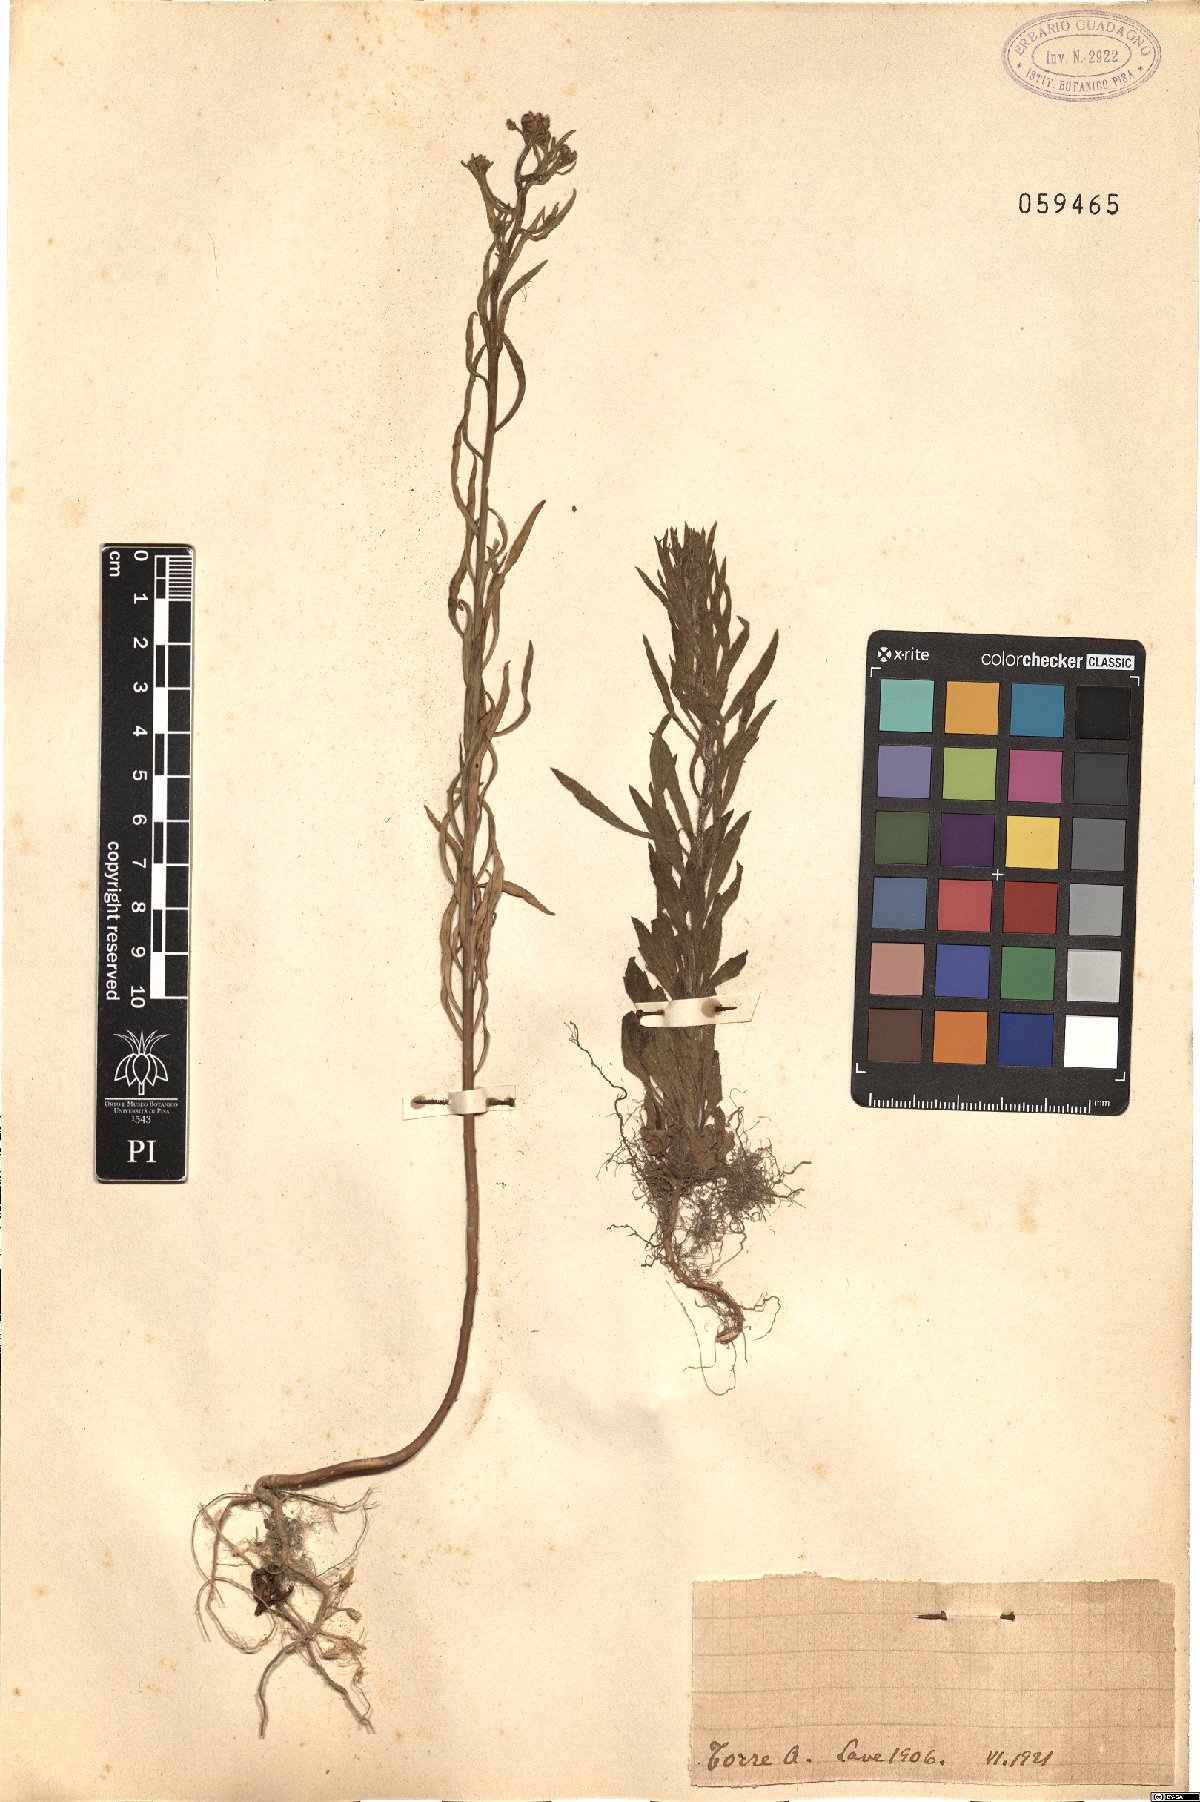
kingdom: Plantae
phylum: Tracheophyta
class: Magnoliopsida
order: Brassicales
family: Brassicaceae
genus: Lepidium
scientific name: Lepidium
